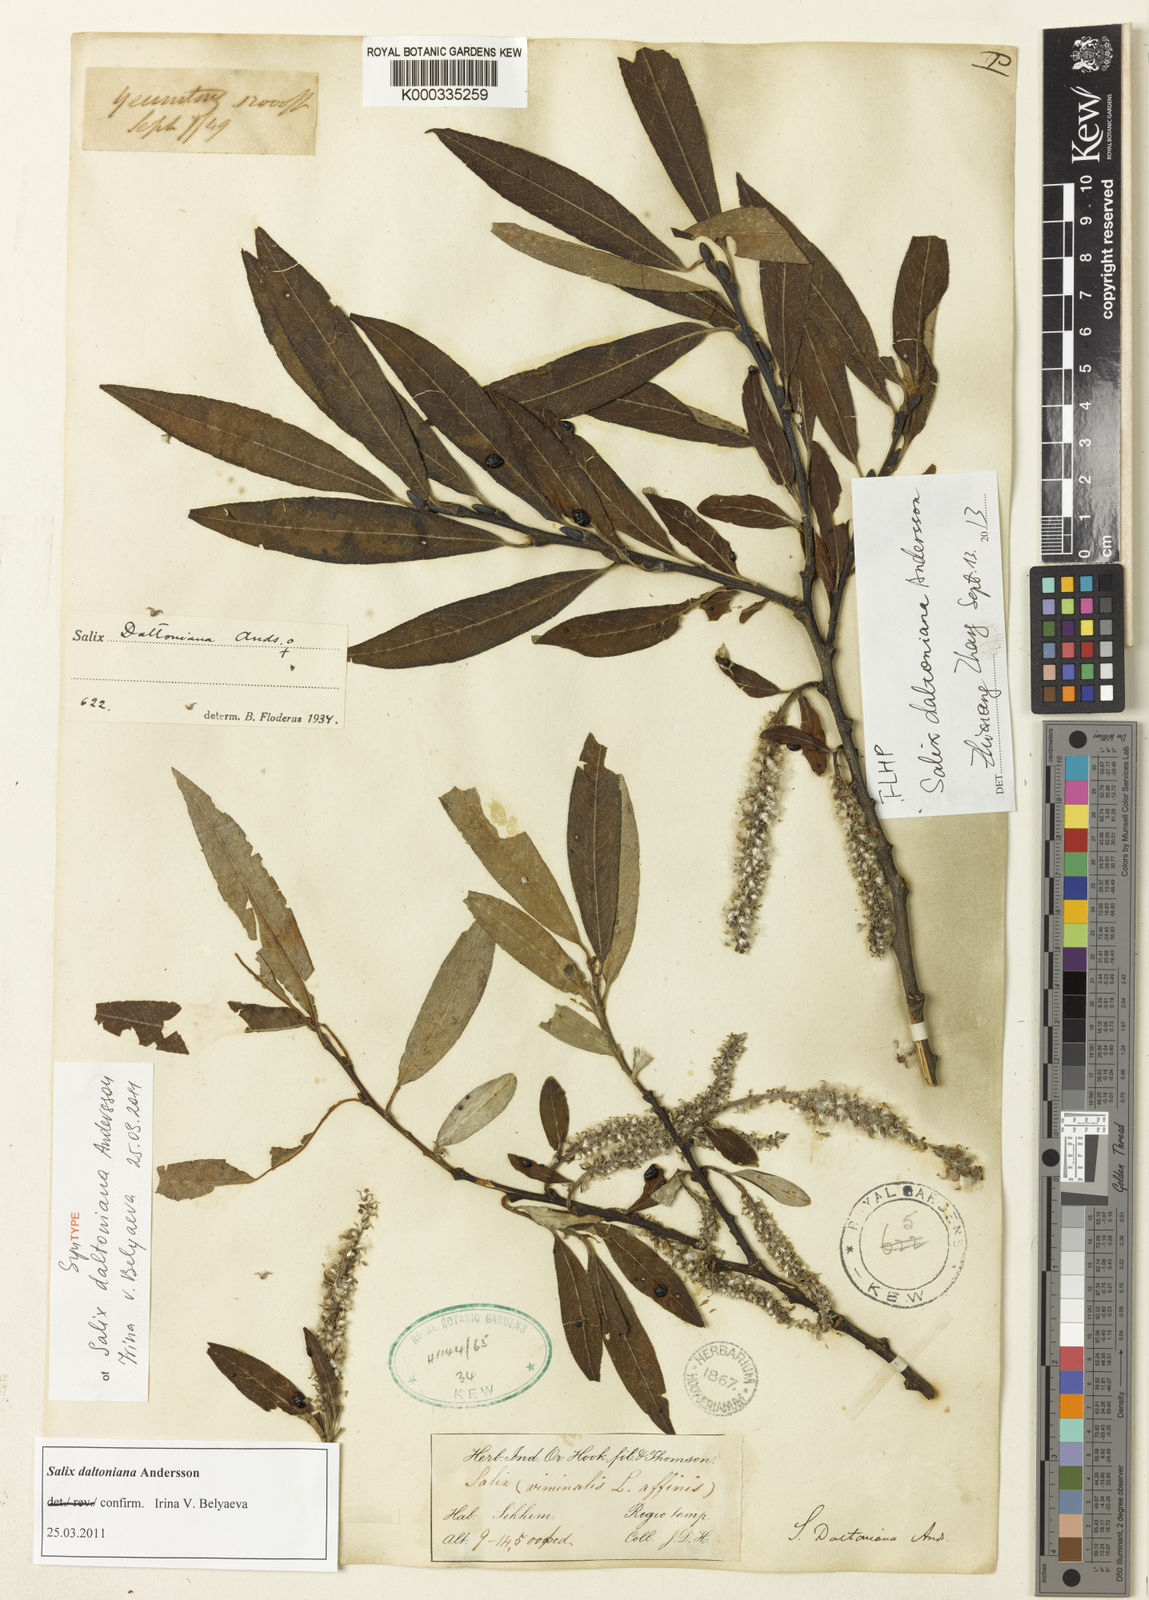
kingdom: Plantae
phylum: Tracheophyta
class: Magnoliopsida
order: Malpighiales
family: Salicaceae
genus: Salix
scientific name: Salix daltoniana
